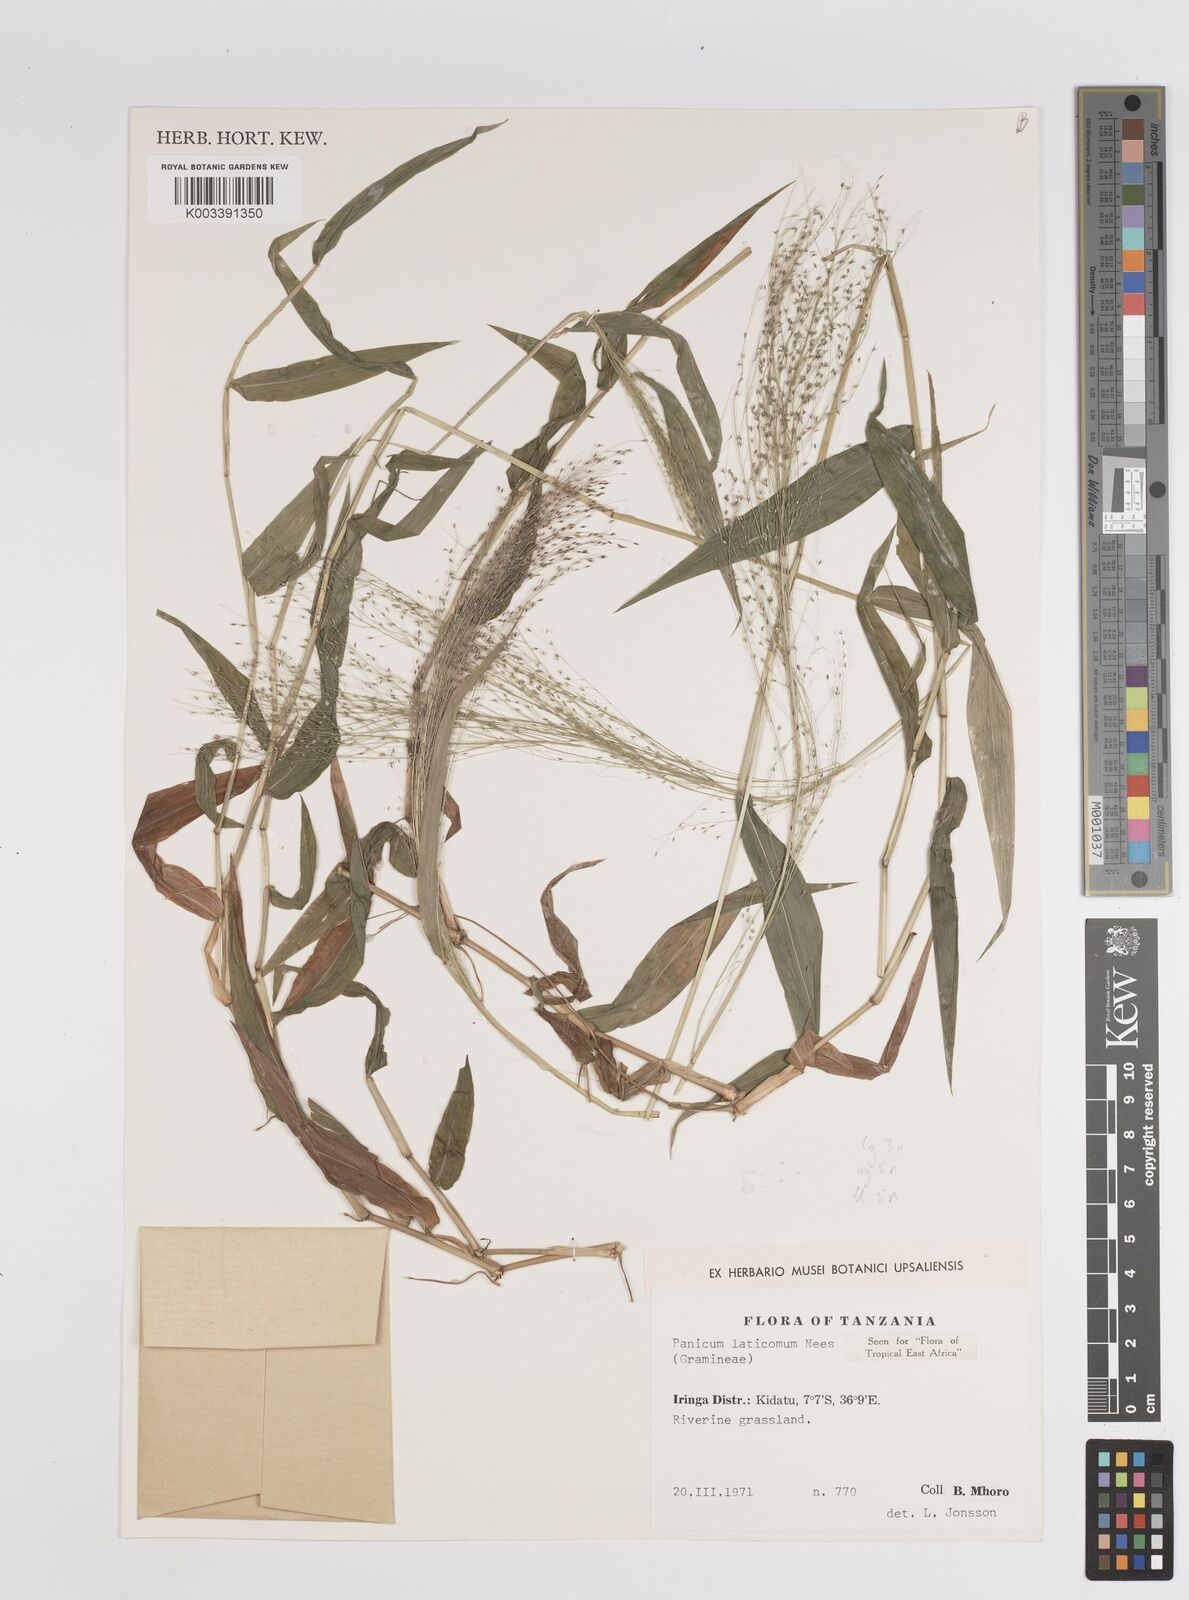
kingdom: Plantae
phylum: Tracheophyta
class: Liliopsida
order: Poales
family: Poaceae
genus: Panicum
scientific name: Panicum laticomum
